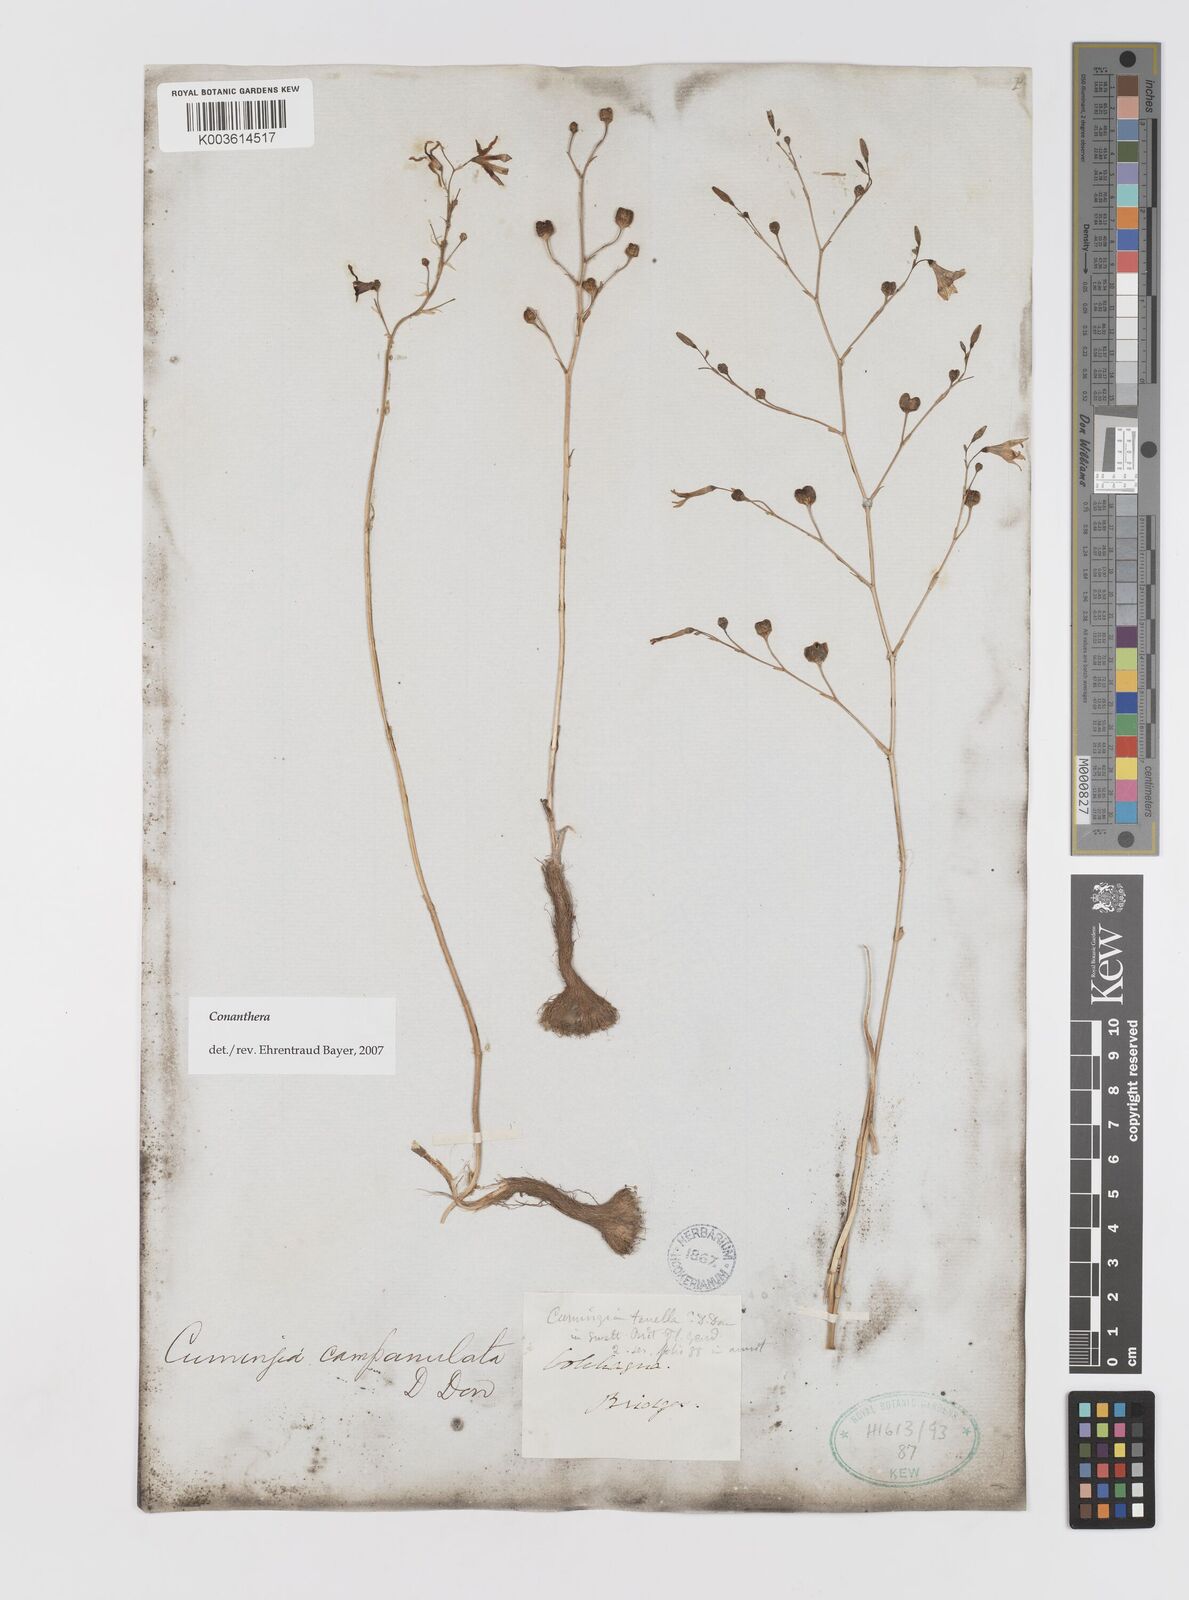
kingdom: Plantae
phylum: Tracheophyta
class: Liliopsida
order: Asparagales
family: Tecophilaeaceae
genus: Conanthera
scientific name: Conanthera campanulata
